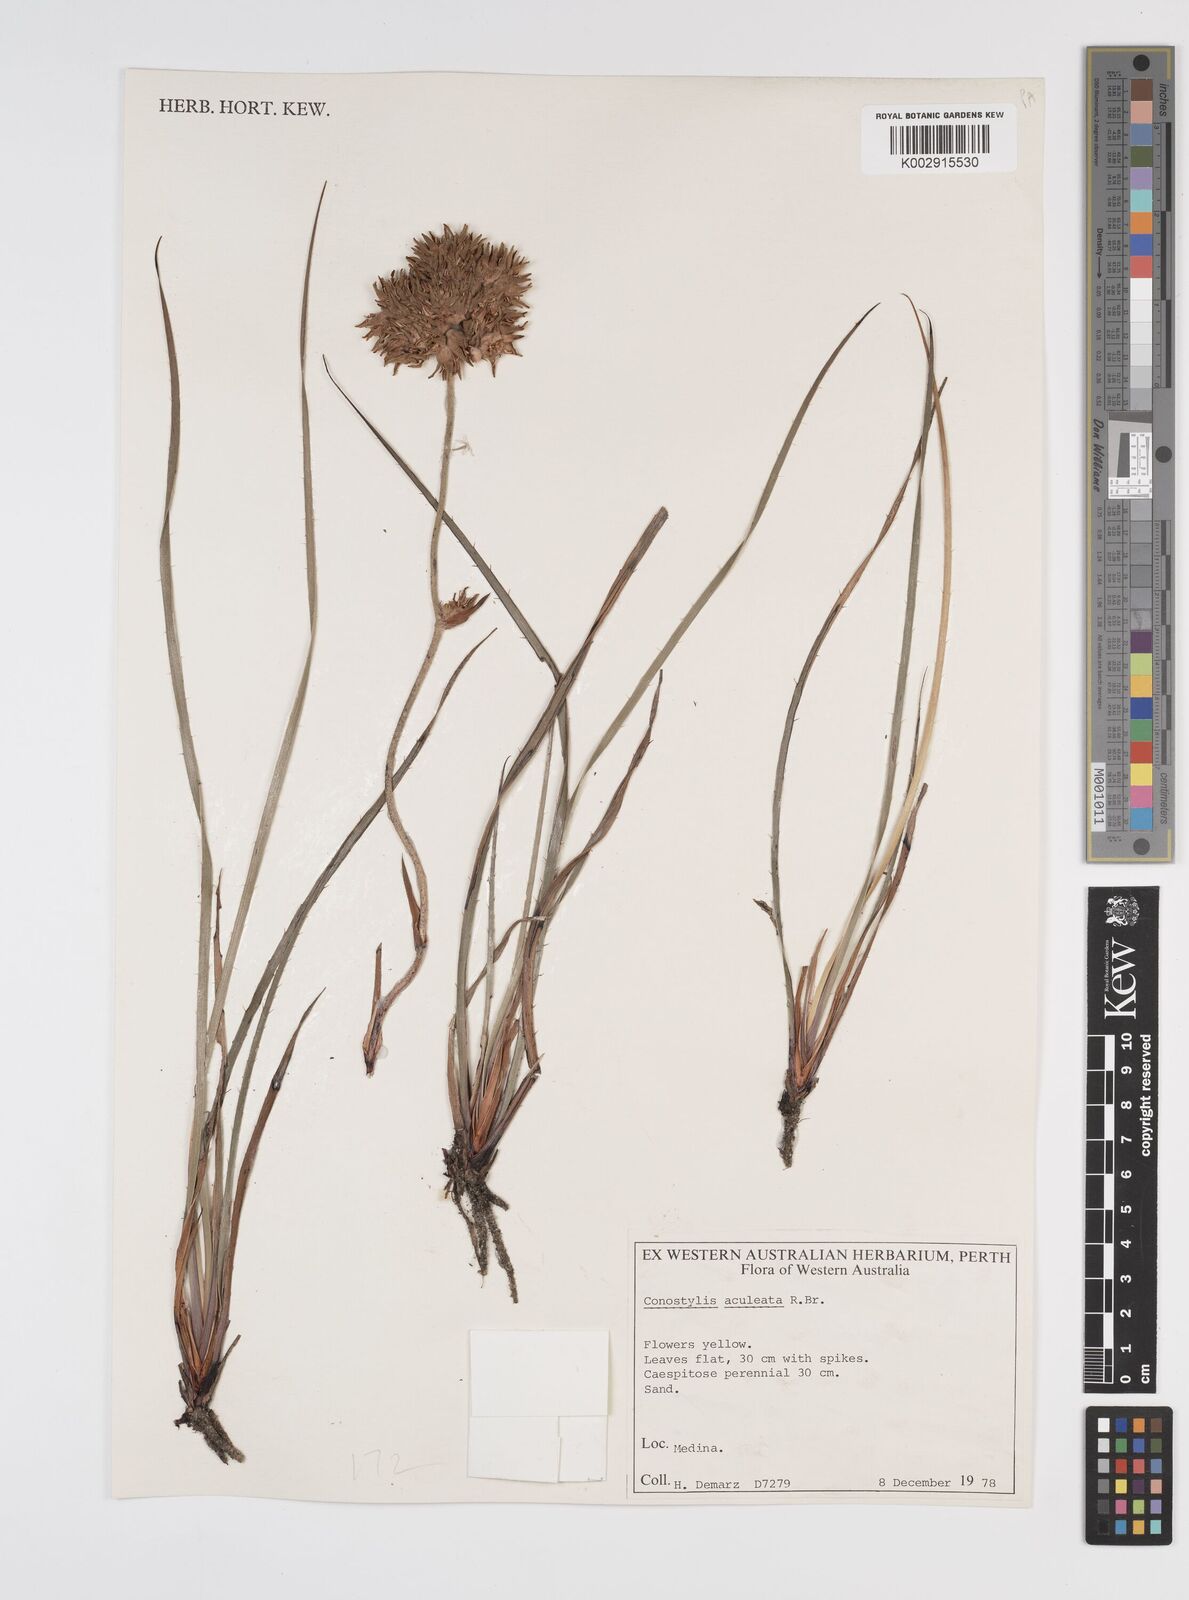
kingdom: Plantae
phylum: Tracheophyta
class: Liliopsida
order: Commelinales
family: Haemodoraceae
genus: Conostylis
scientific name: Conostylis aculeata
